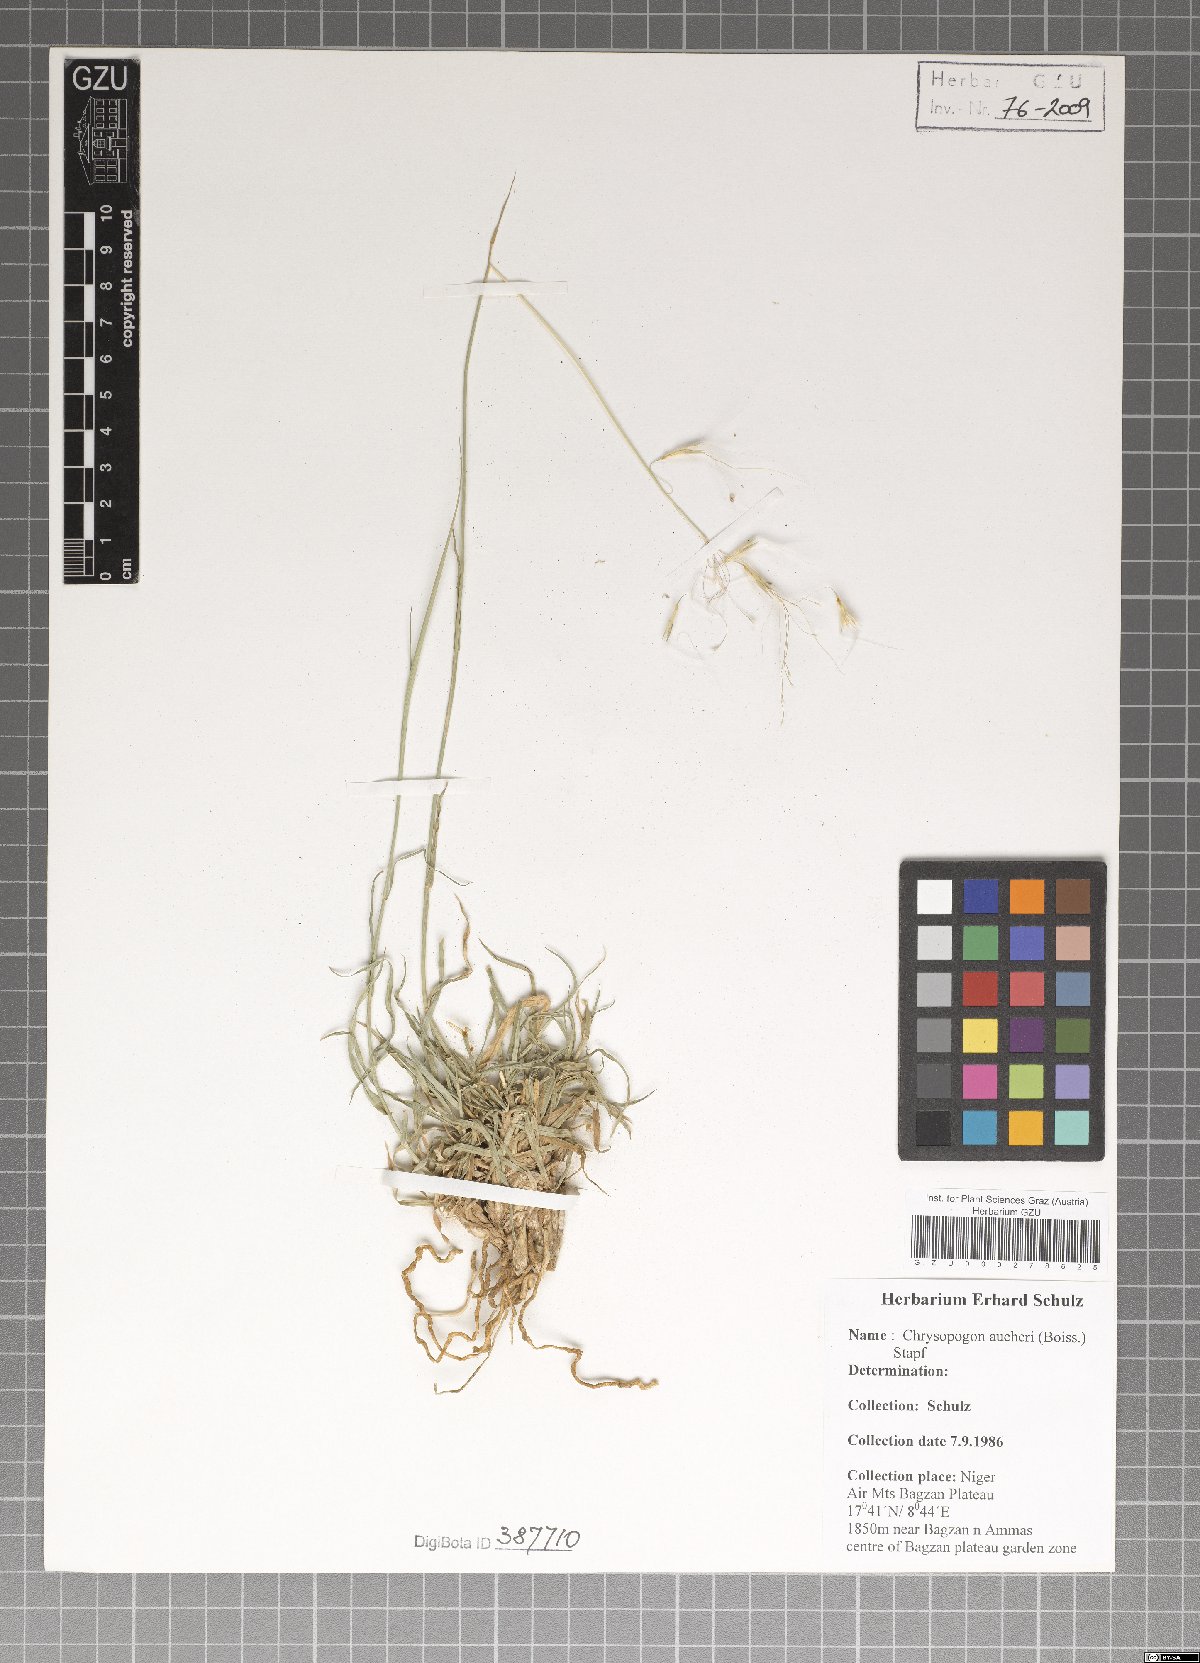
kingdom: Plantae
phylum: Tracheophyta
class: Liliopsida
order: Poales
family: Poaceae
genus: Chrysopogon
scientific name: Chrysopogon aucheri
